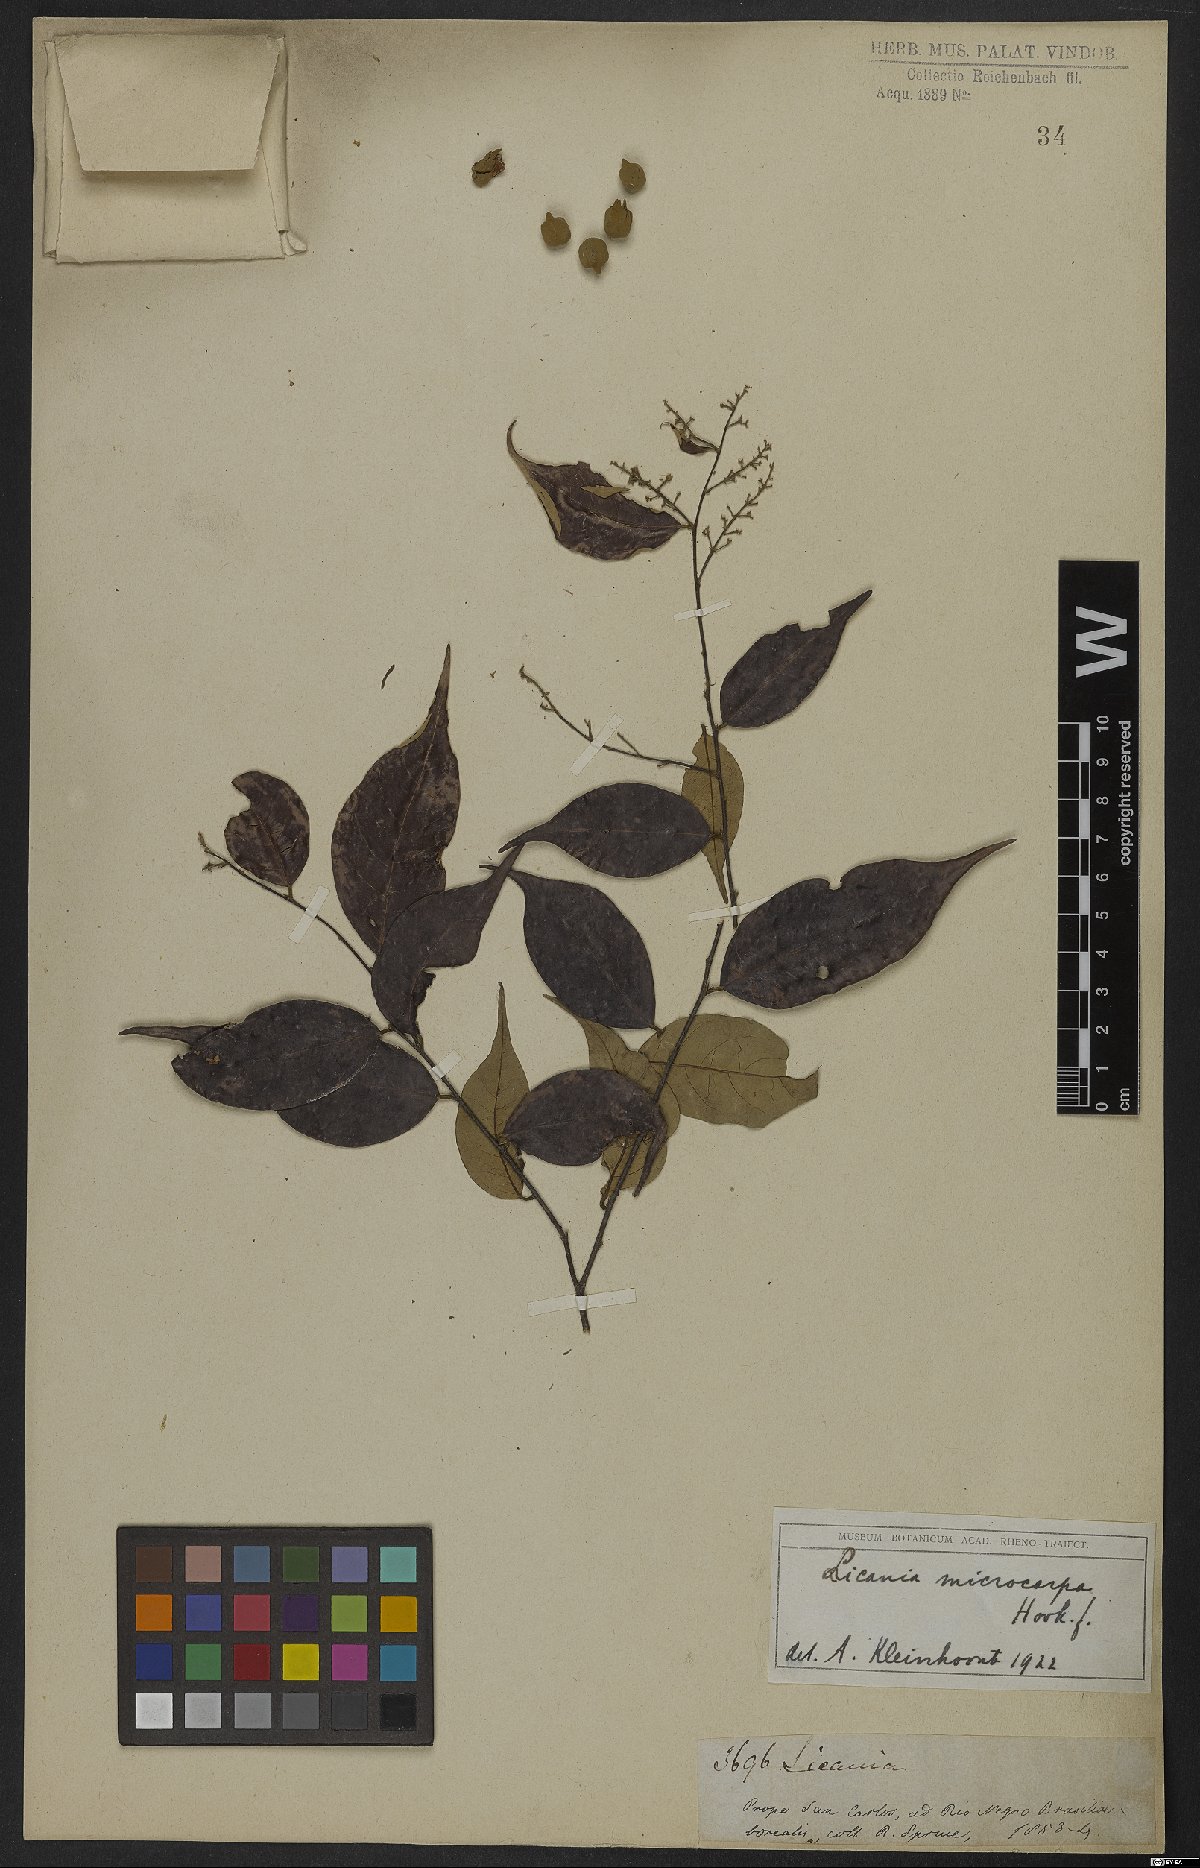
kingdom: Plantae
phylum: Tracheophyta
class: Magnoliopsida
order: Malpighiales
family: Chrysobalanaceae
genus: Licania
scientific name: Licania hypoleuca
